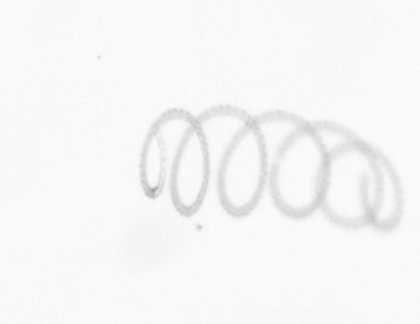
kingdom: Chromista
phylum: Ochrophyta
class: Bacillariophyceae
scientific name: Bacillariophyceae
